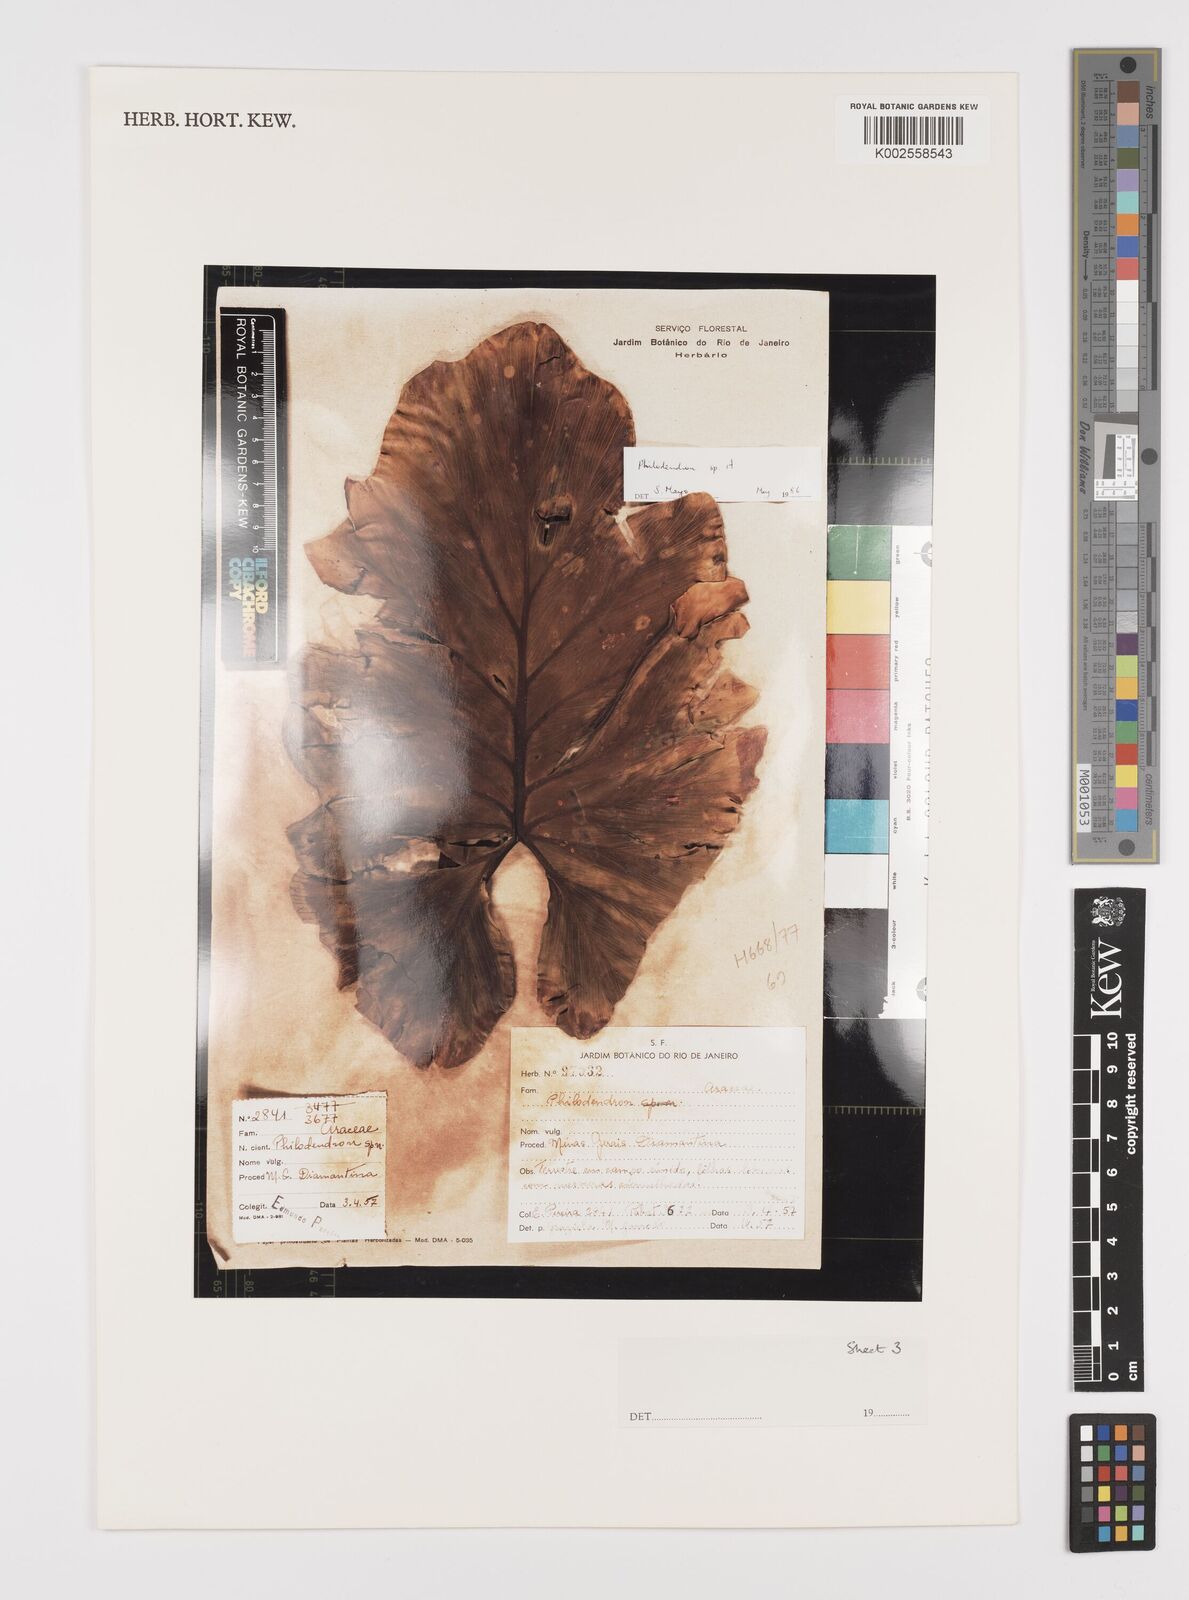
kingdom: Plantae
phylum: Tracheophyta
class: Liliopsida
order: Alismatales
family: Araceae
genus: Philodendron
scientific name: Philodendron
